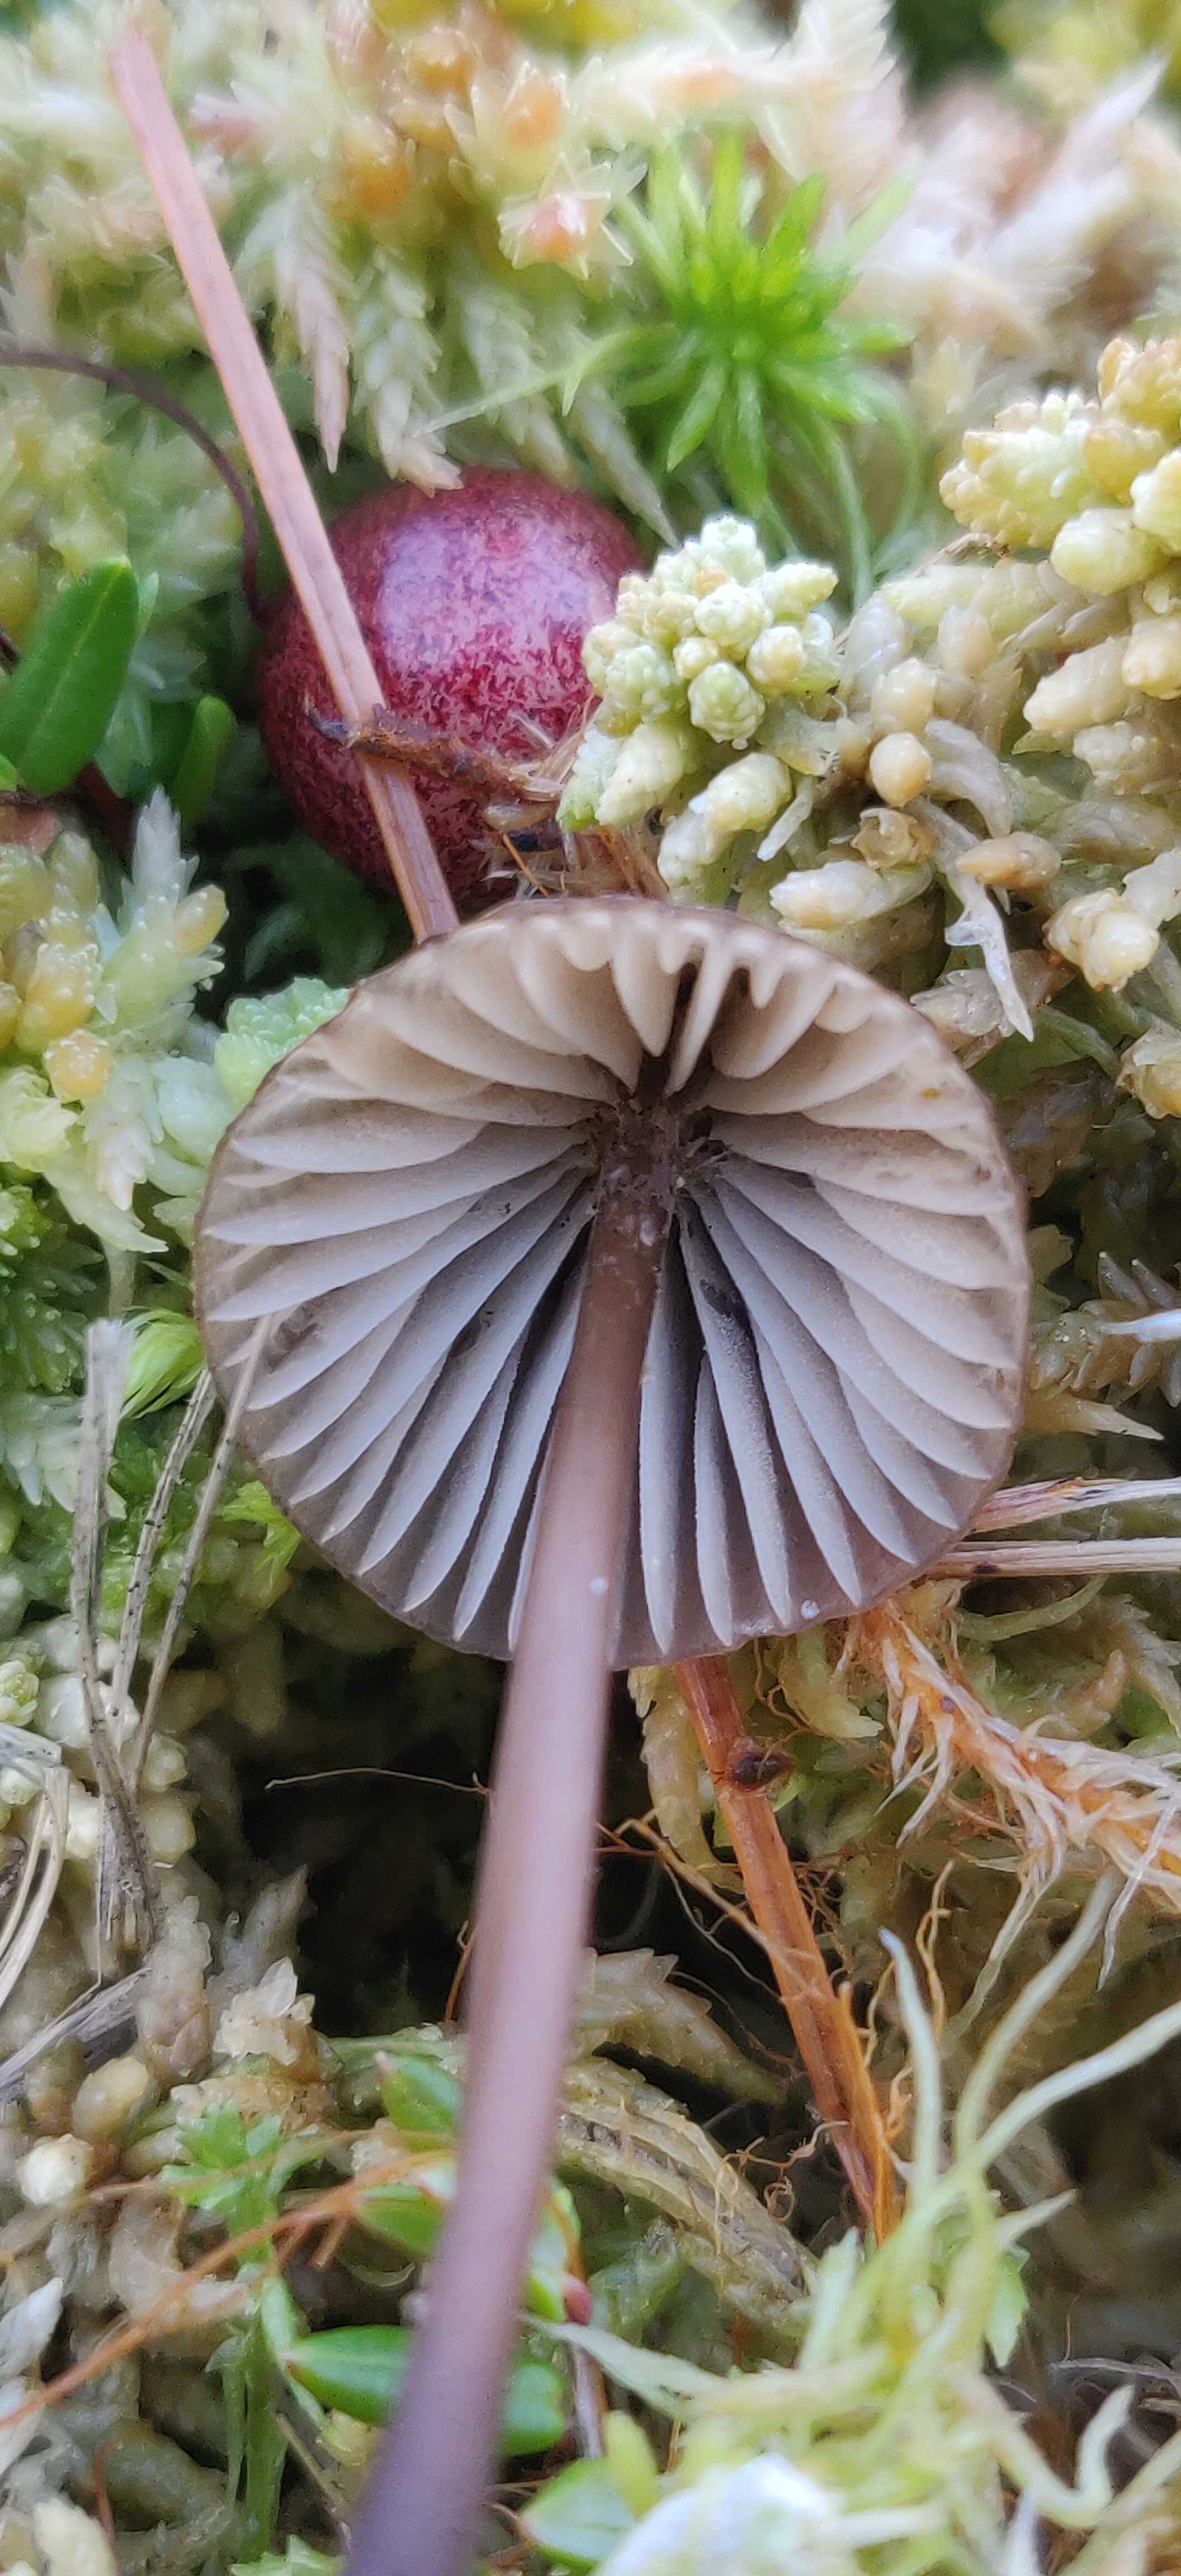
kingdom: Fungi
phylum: Basidiomycota
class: Agaricomycetes
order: Agaricales
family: Mycenaceae
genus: Mycena
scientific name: Mycena galopus
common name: hvidmælket huesvamp
